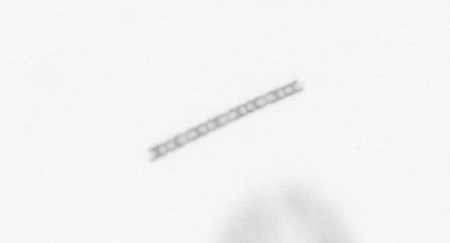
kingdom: Chromista
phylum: Ochrophyta
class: Bacillariophyceae
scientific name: Bacillariophyceae
